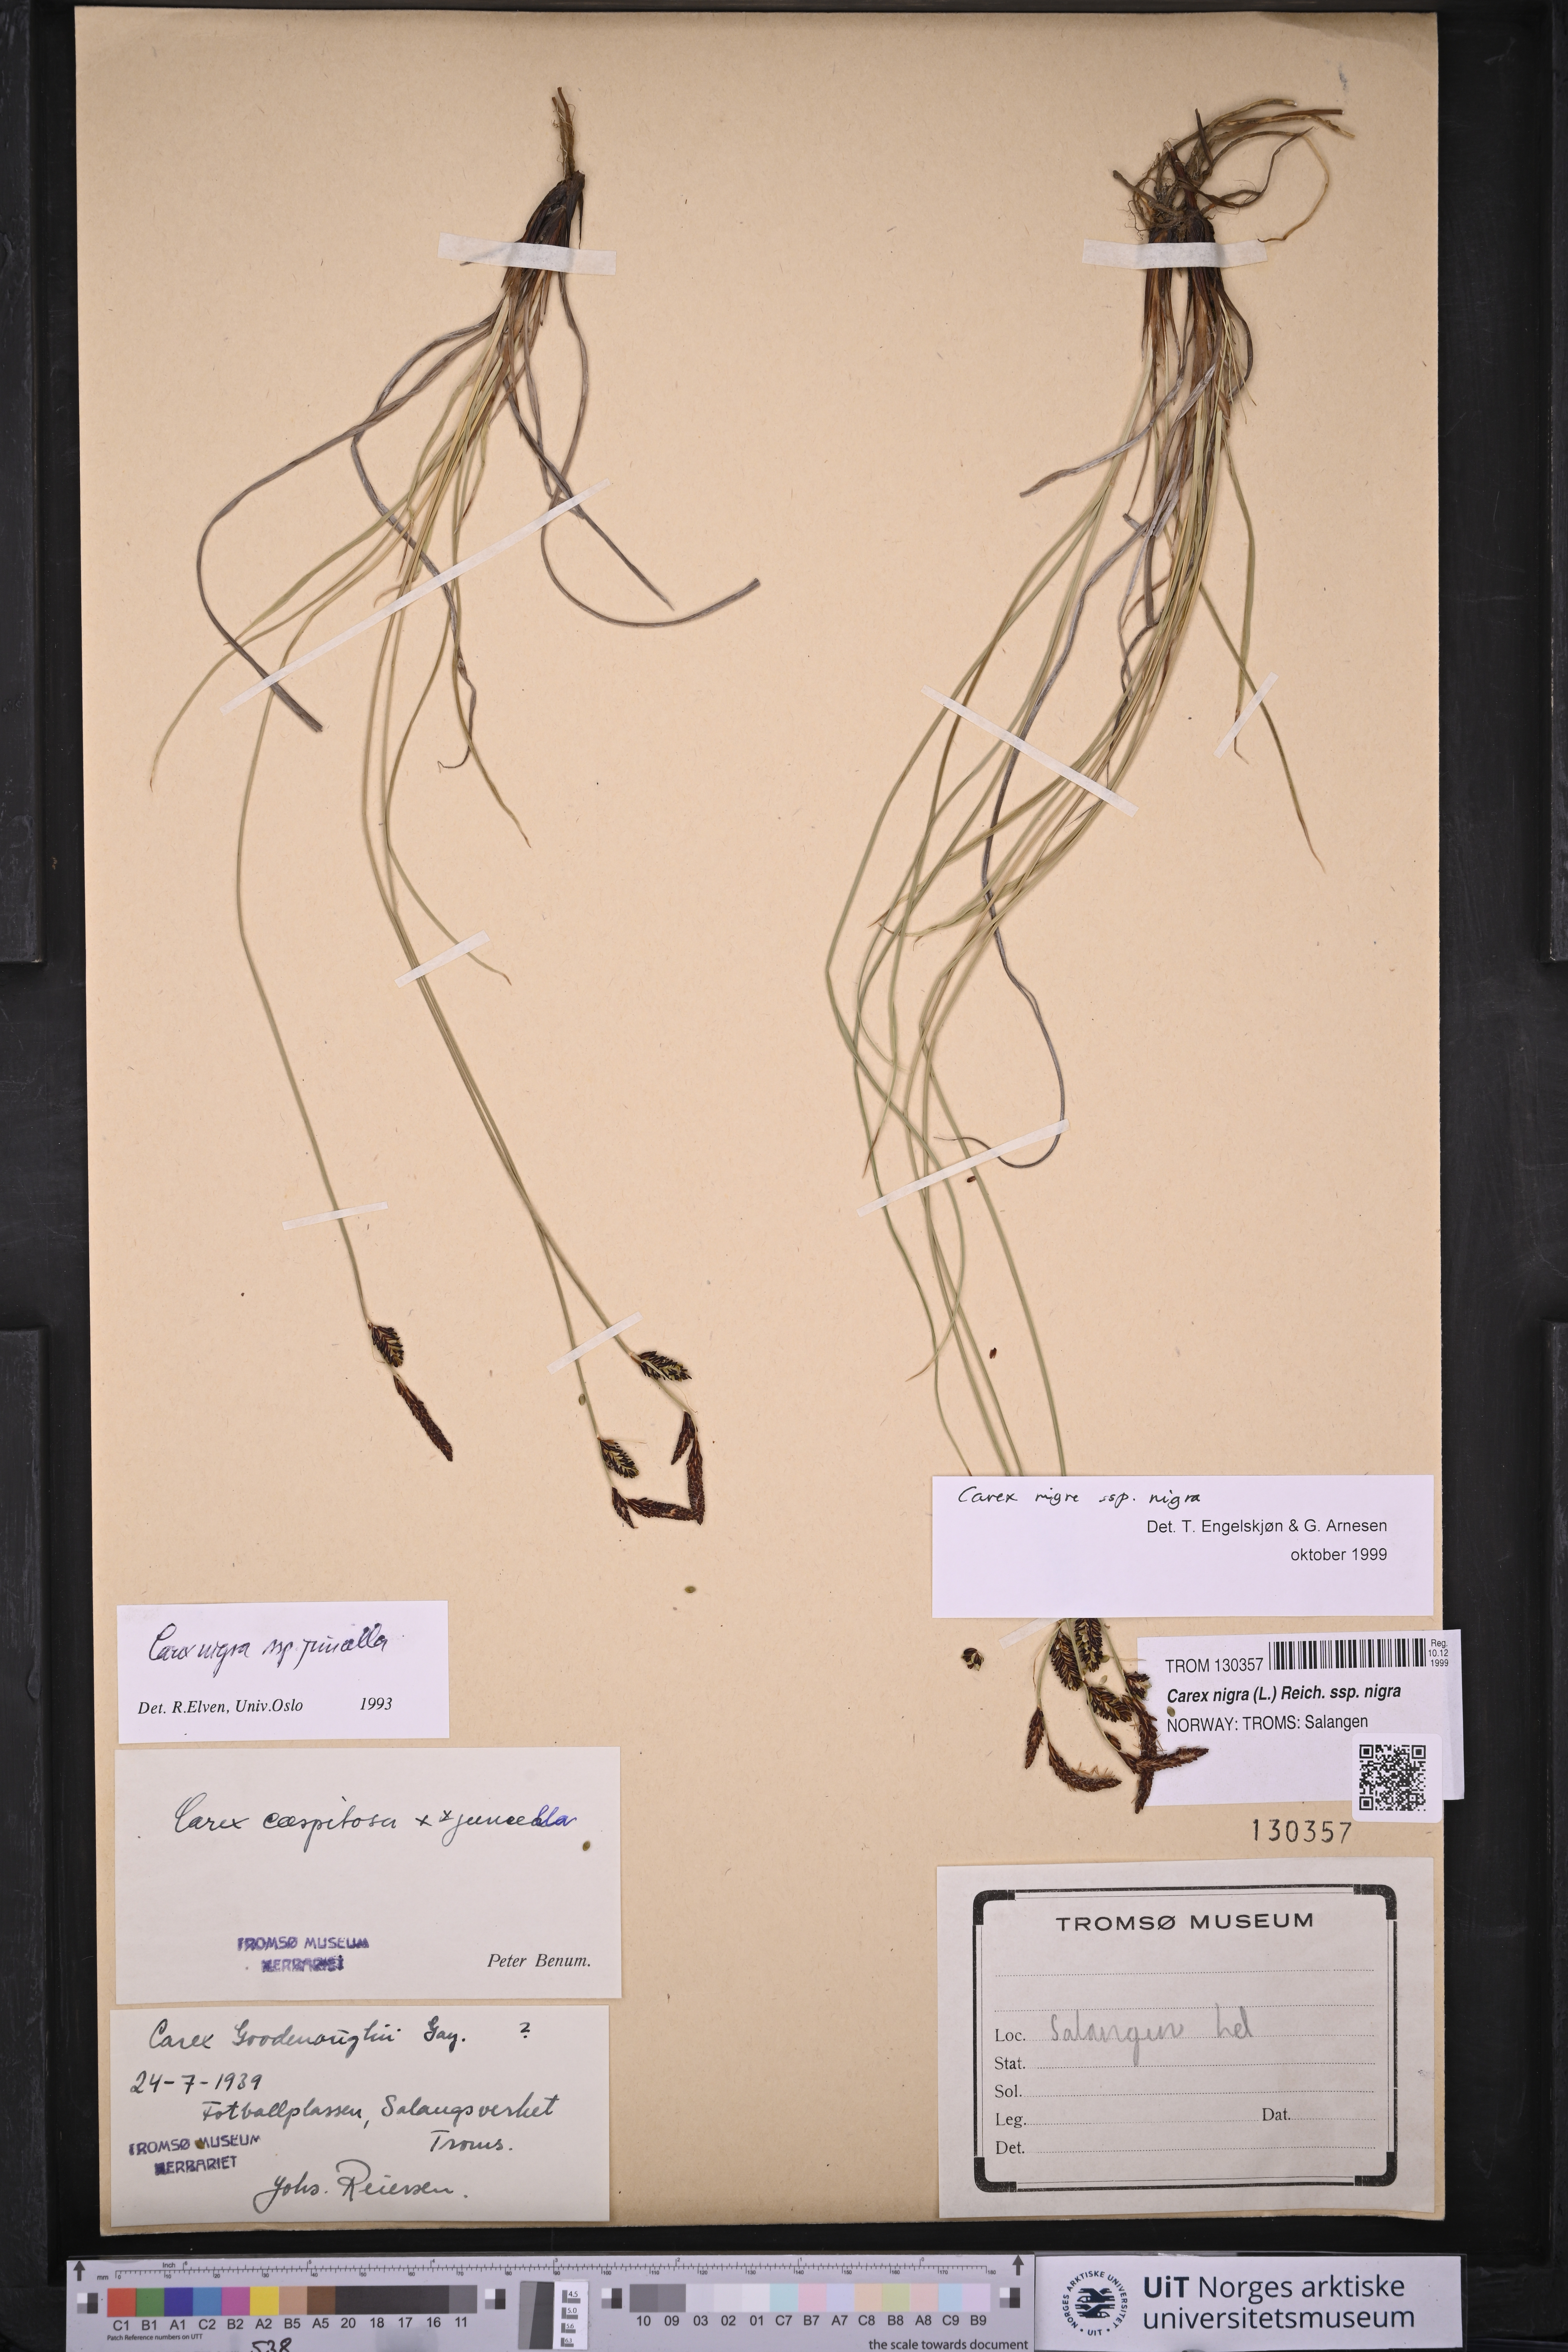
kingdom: Plantae
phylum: Tracheophyta
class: Liliopsida
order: Poales
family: Cyperaceae
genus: Carex
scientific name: Carex nigra
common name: Common sedge
